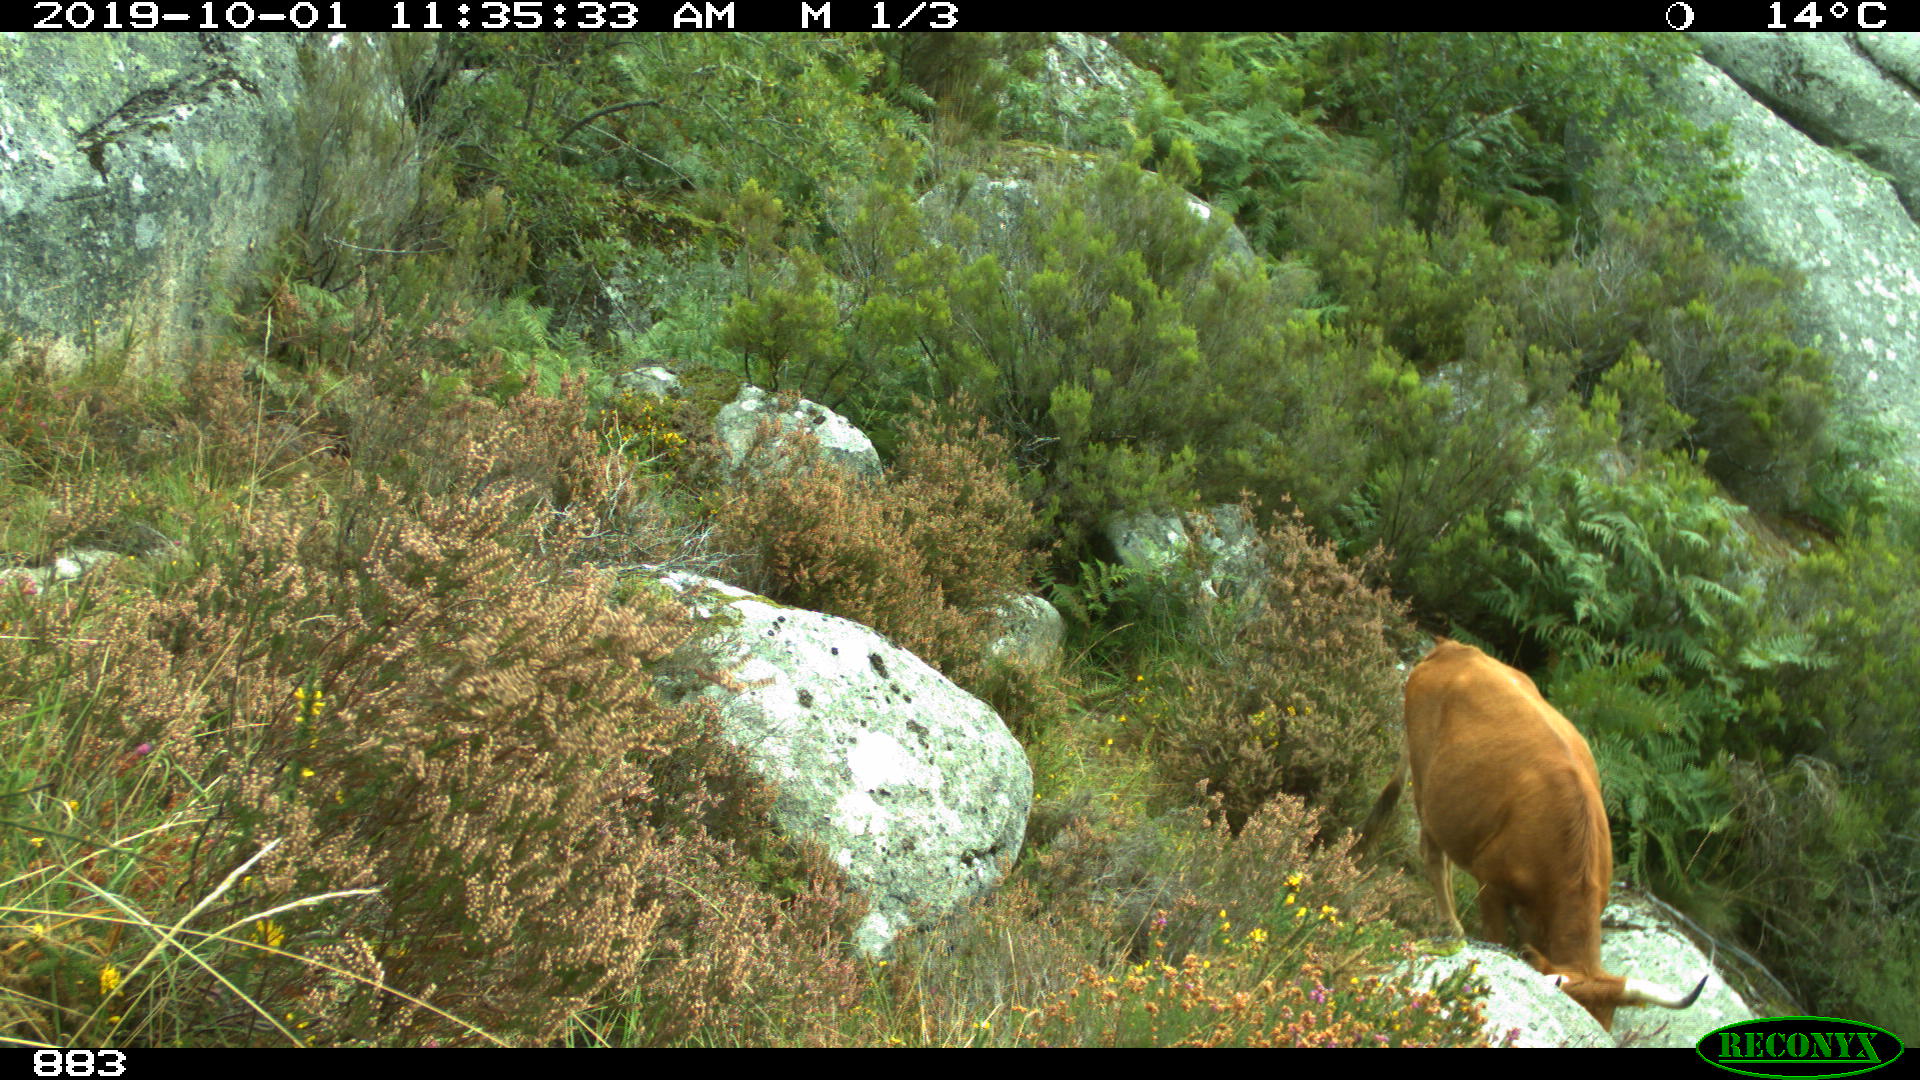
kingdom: Animalia
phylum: Chordata
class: Mammalia
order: Artiodactyla
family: Bovidae
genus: Bos
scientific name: Bos taurus
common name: Domesticated cattle
